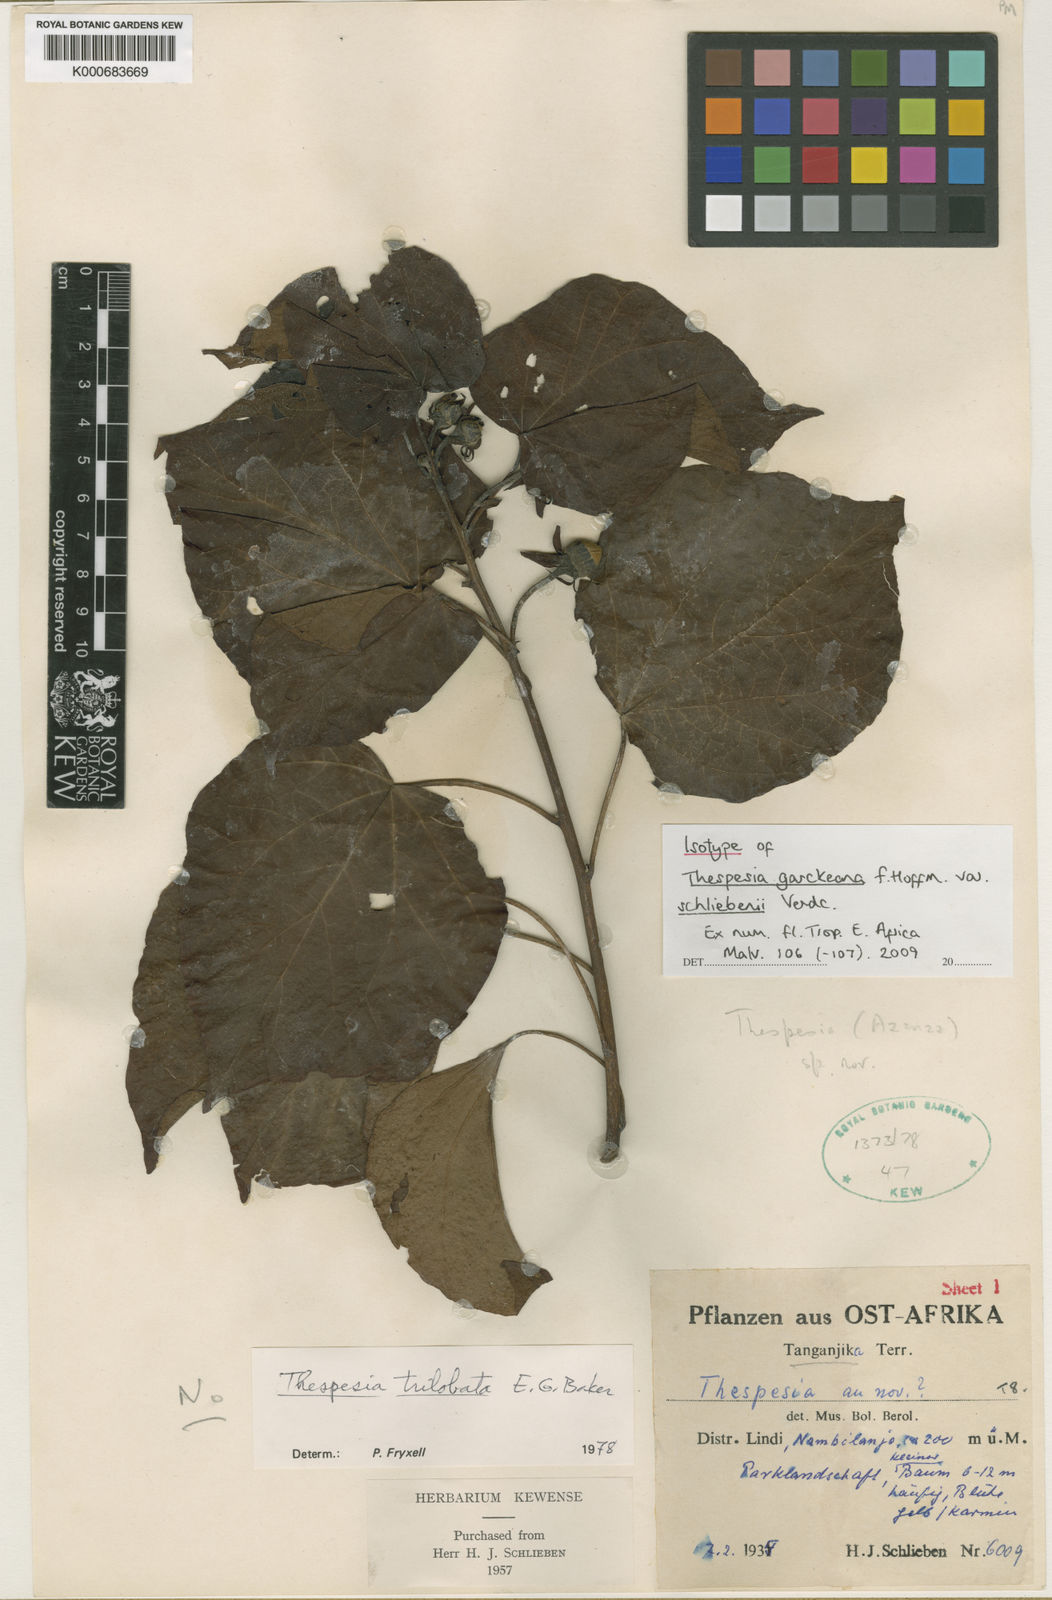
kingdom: Plantae
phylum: Tracheophyta
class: Magnoliopsida
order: Malvales
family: Malvaceae
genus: Thespesia
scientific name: Thespesia garckeana
